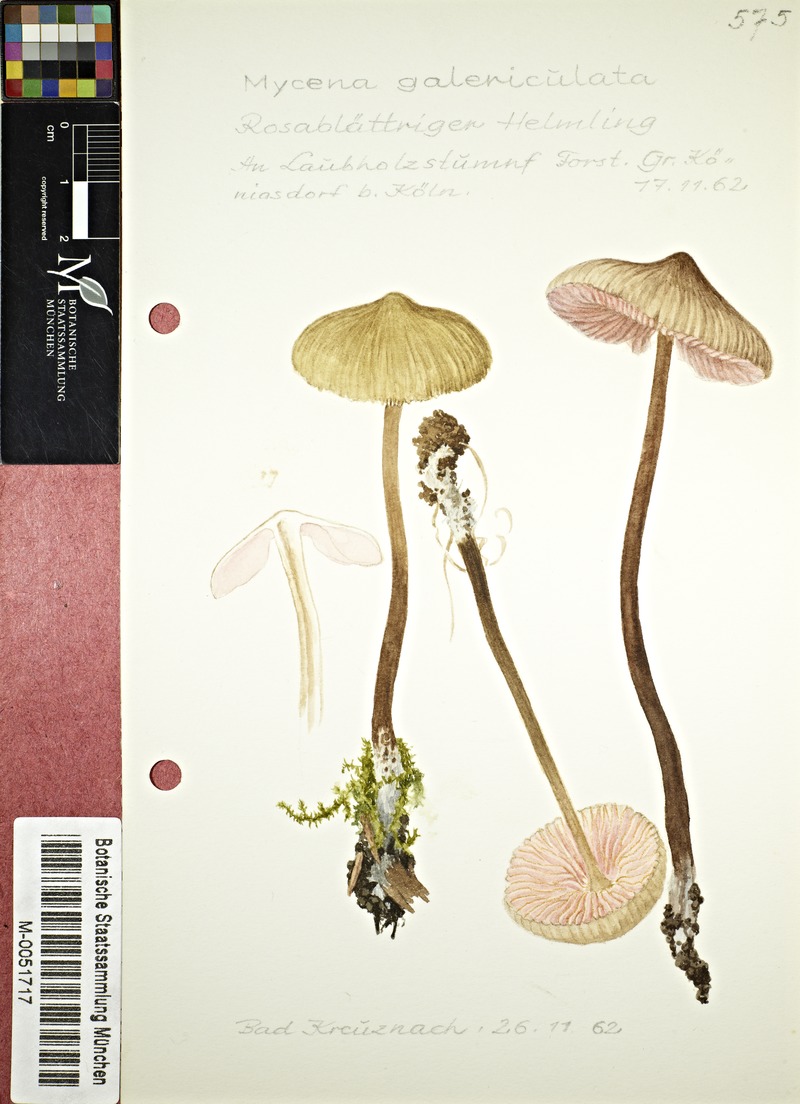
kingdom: Fungi
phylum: Basidiomycota
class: Agaricomycetes
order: Agaricales
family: Mycenaceae
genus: Mycena
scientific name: Mycena galericulata
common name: Bonnet mycena
